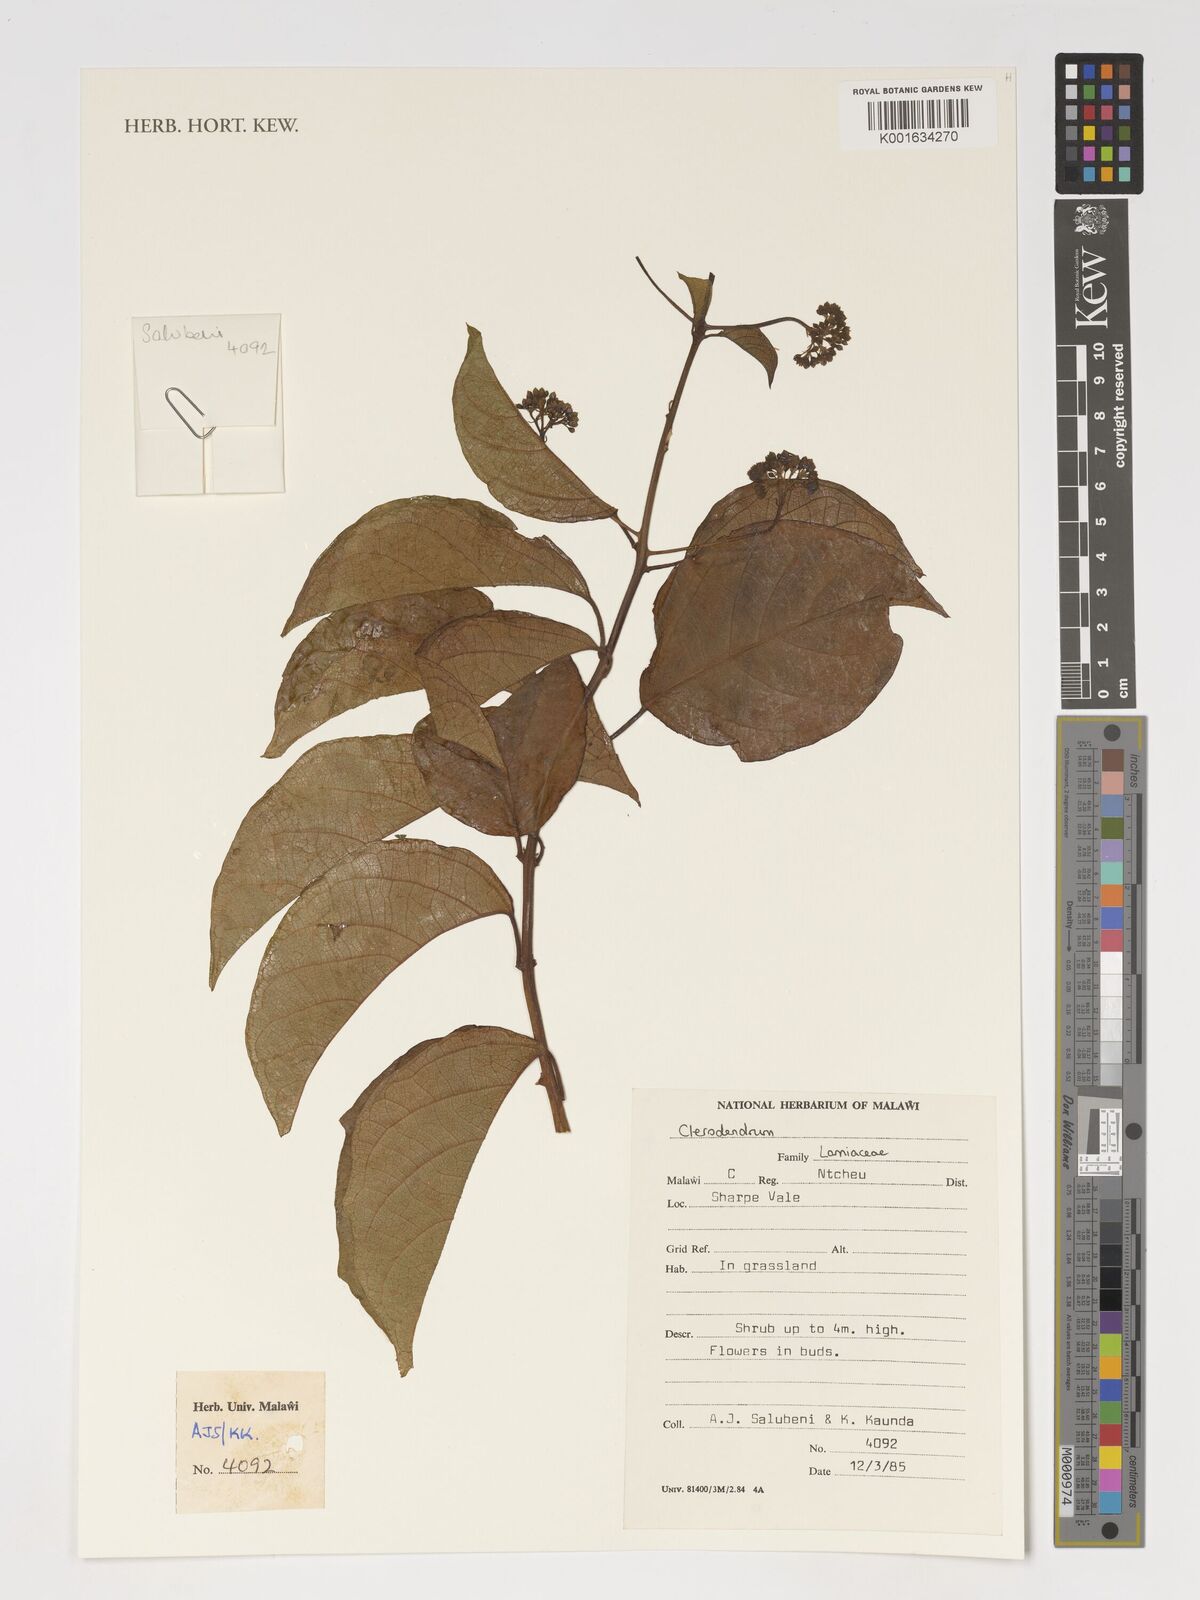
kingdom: Plantae
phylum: Tracheophyta
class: Magnoliopsida
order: Lamiales
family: Lamiaceae
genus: Clerodendrum
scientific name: Clerodendrum
